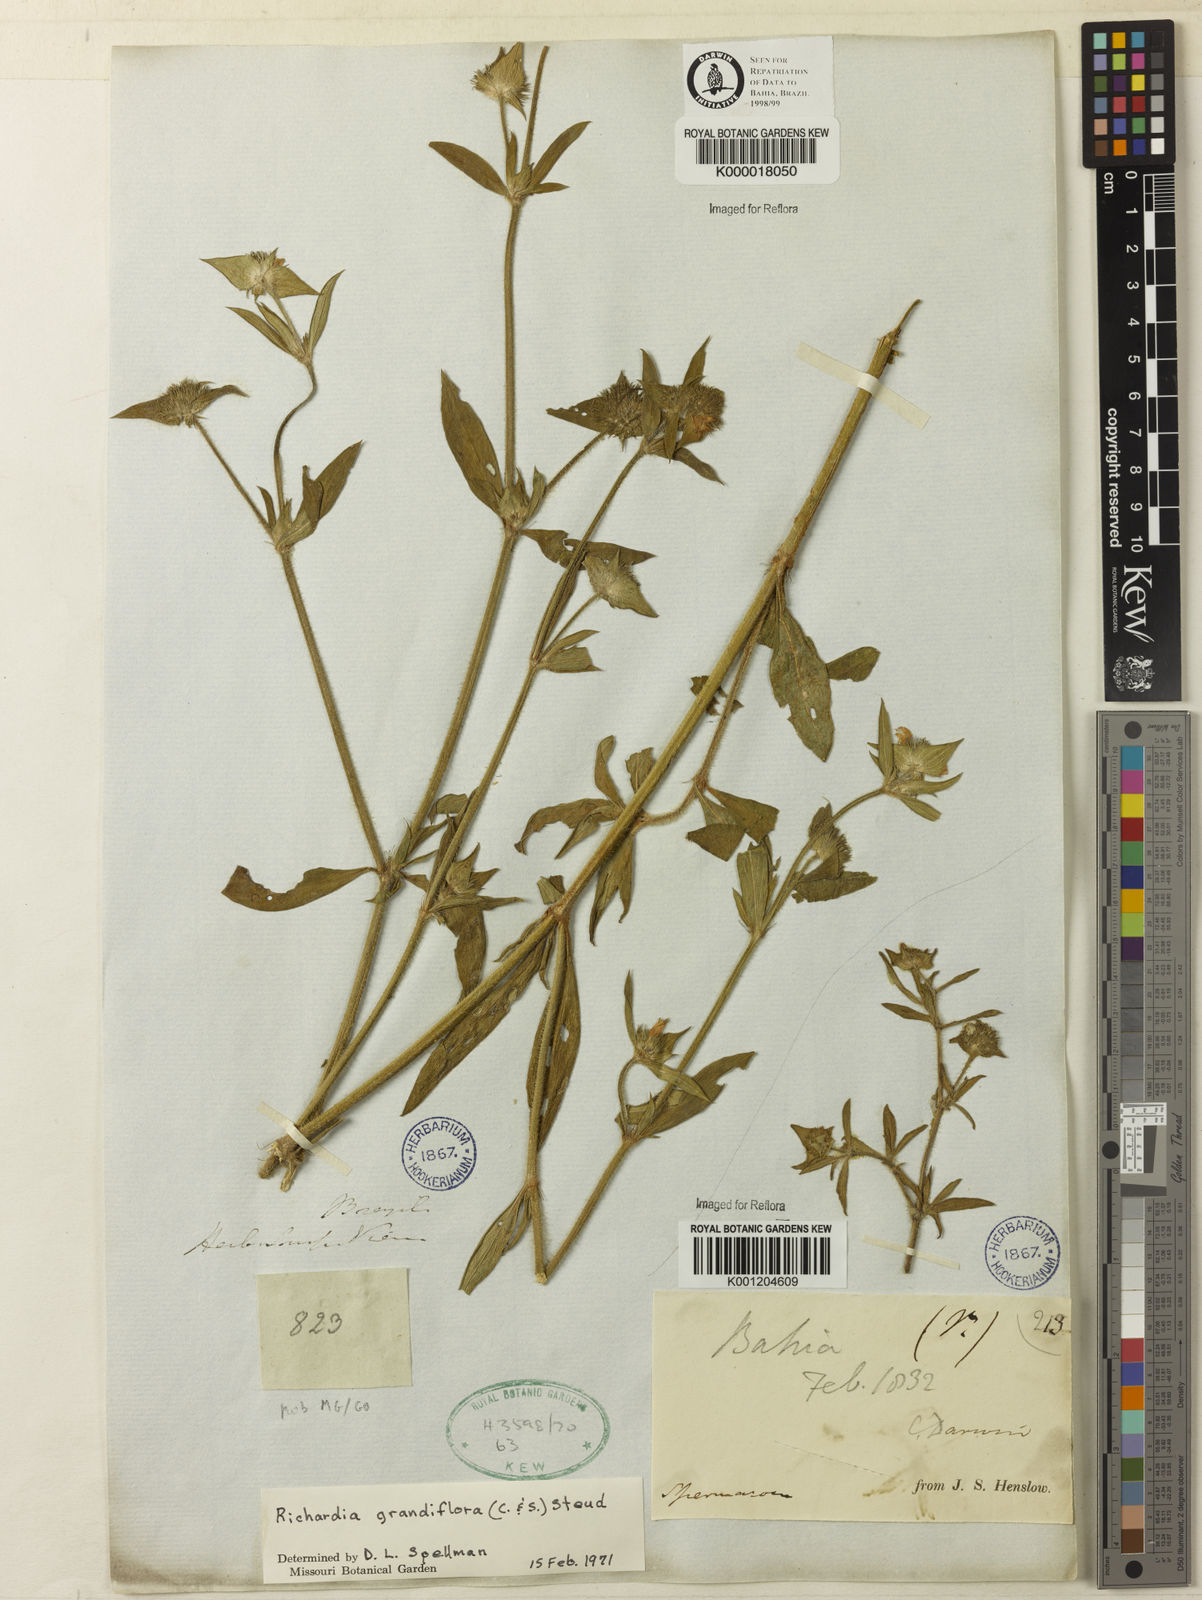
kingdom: Plantae
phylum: Tracheophyta
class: Magnoliopsida
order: Gentianales
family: Rubiaceae
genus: Richardia
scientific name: Richardia grandiflora
